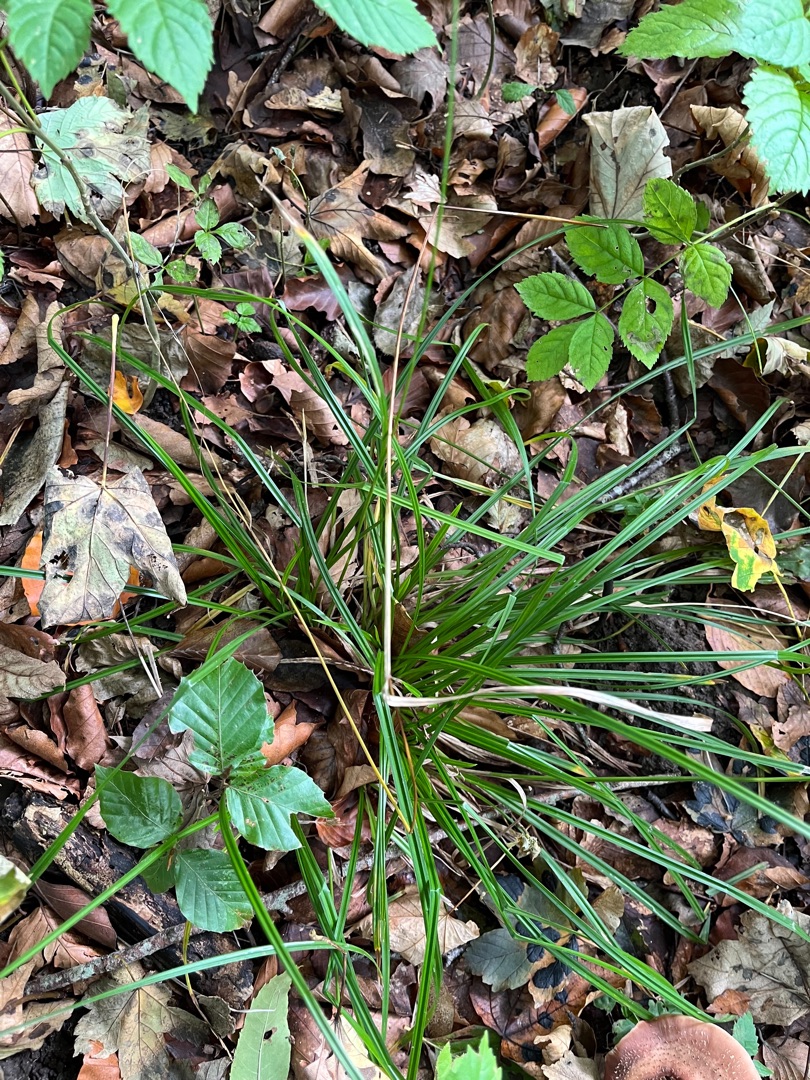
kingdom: Plantae
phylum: Tracheophyta
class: Liliopsida
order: Poales
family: Cyperaceae
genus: Carex
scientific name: Carex sylvatica
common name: Skov-star
